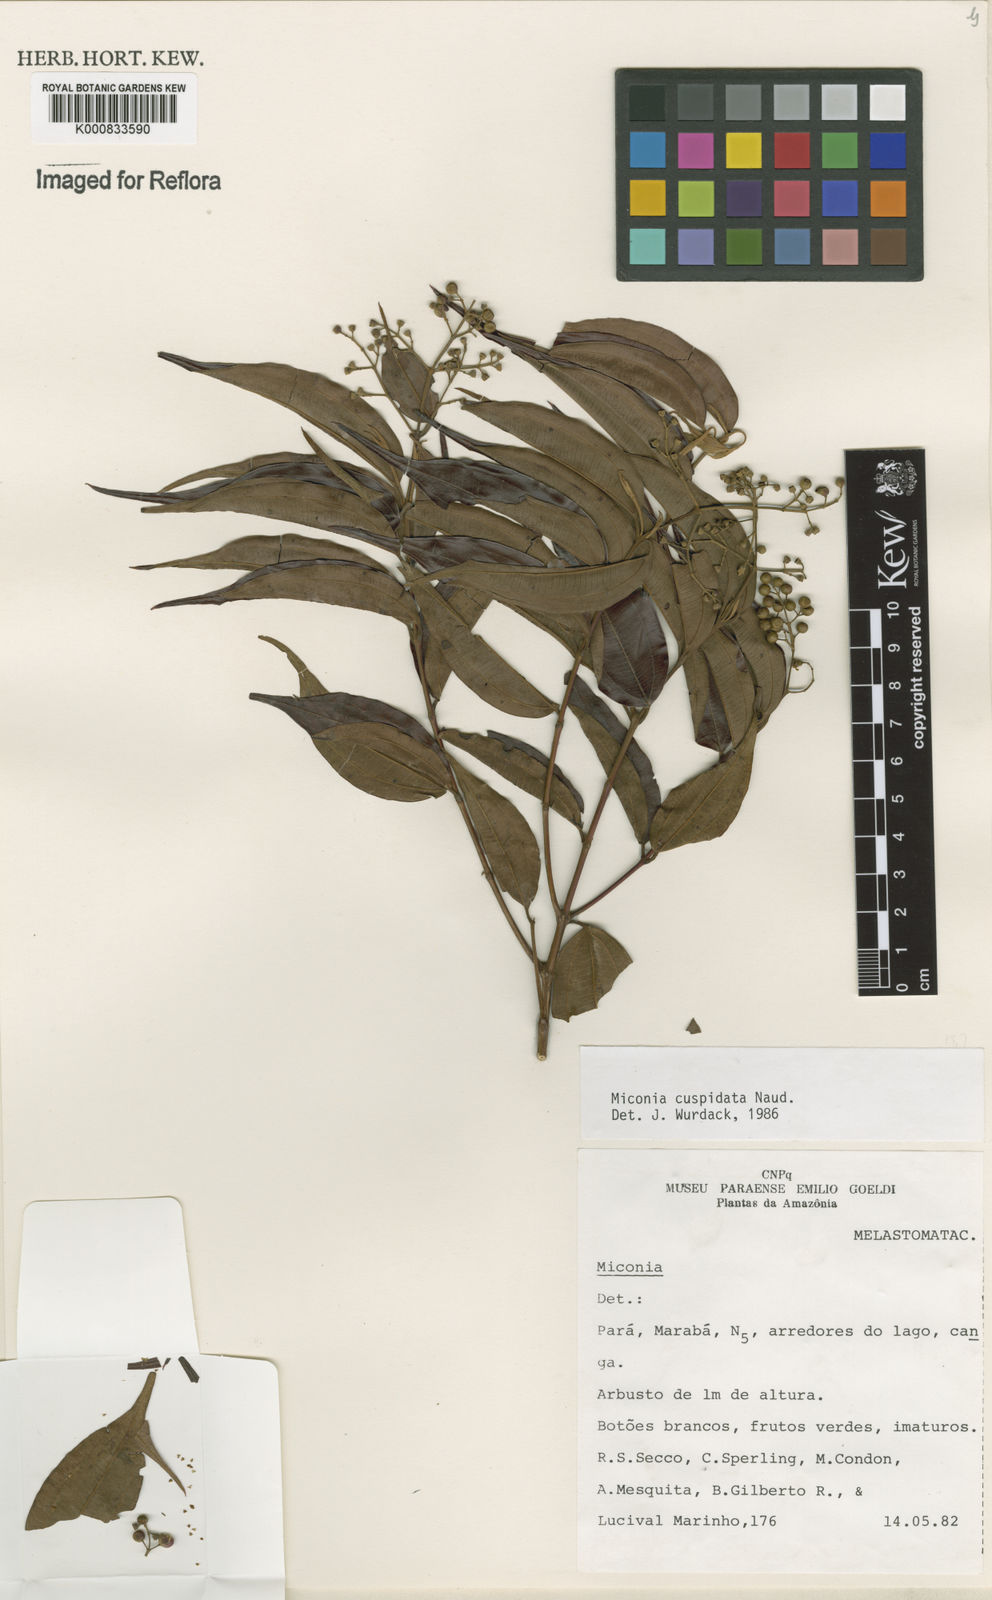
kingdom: Plantae
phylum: Tracheophyta
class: Magnoliopsida
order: Myrtales
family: Melastomataceae
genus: Miconia
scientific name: Miconia cuspidata
